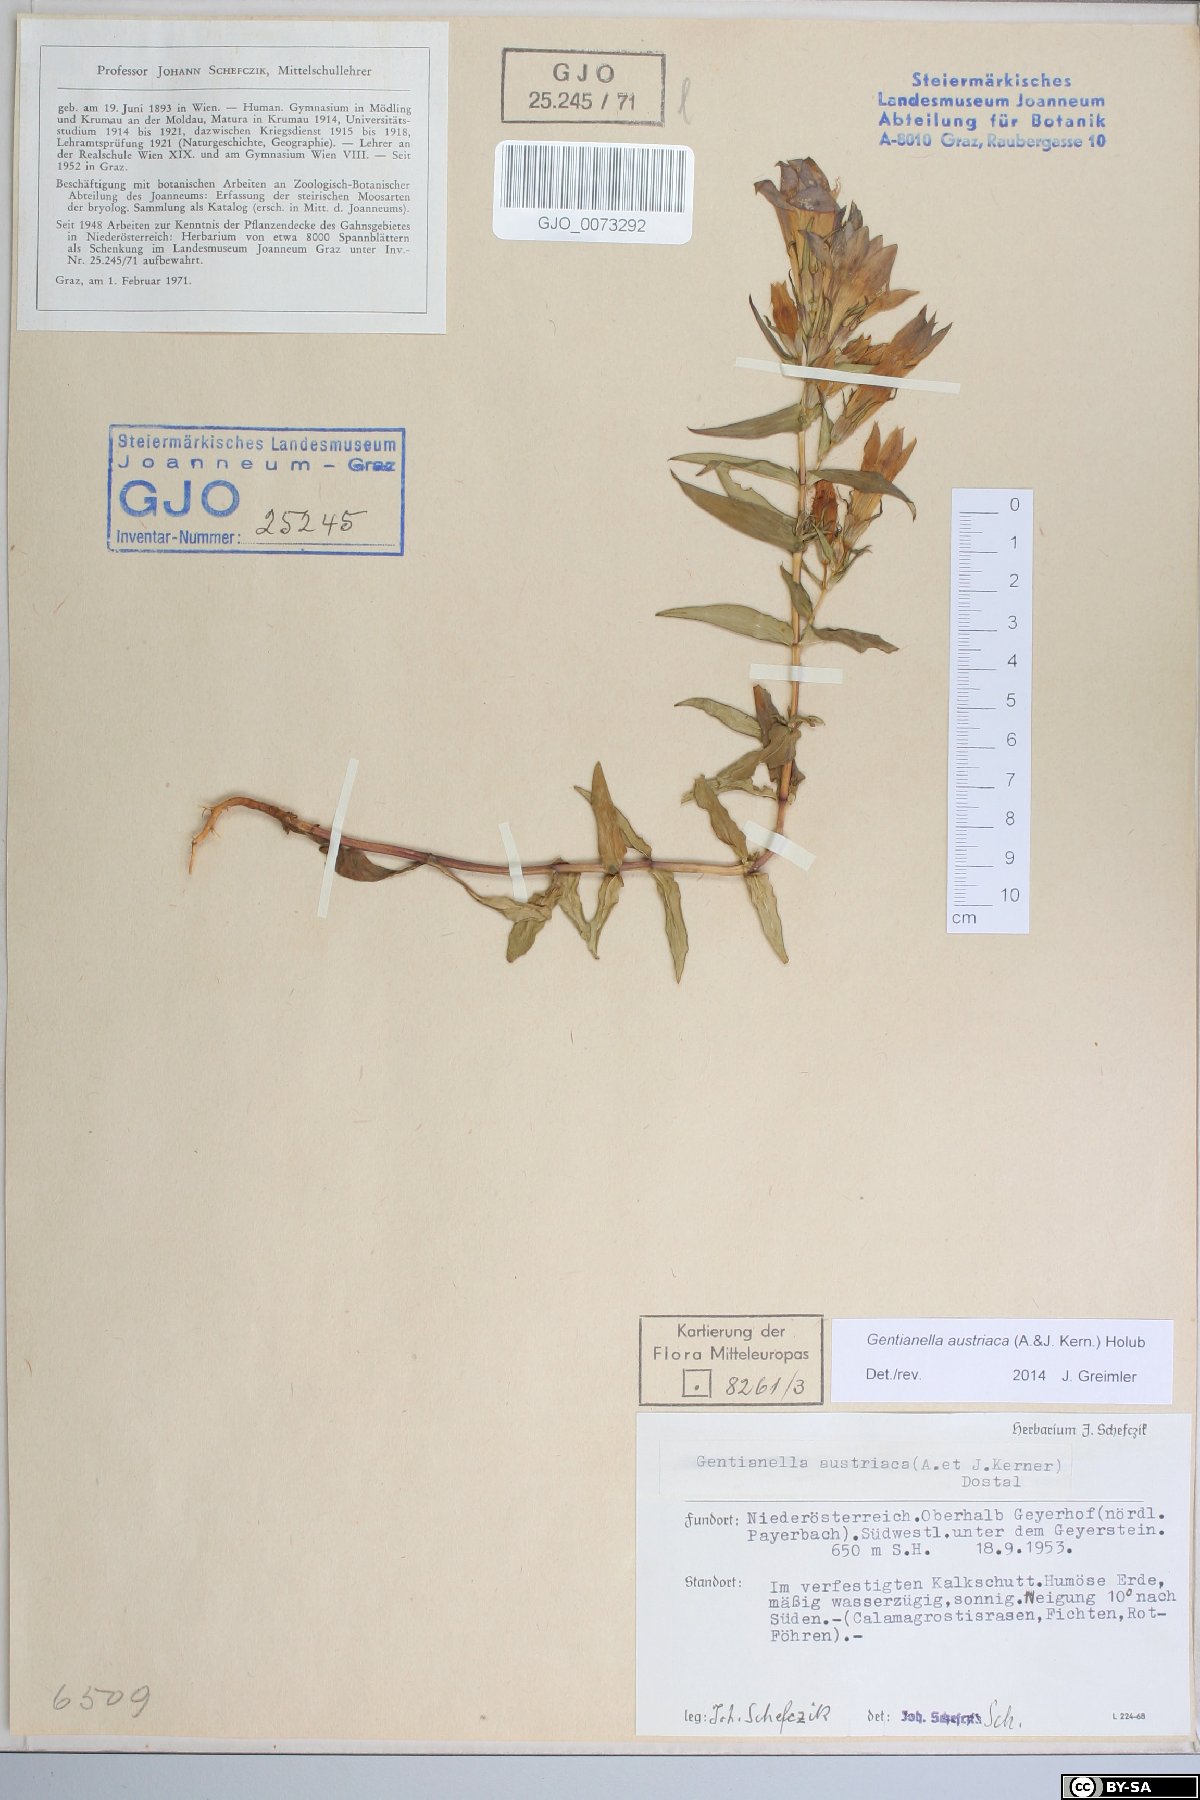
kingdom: Plantae
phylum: Tracheophyta
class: Magnoliopsida
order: Gentianales
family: Gentianaceae
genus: Gentianella
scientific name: Gentianella austriaca
